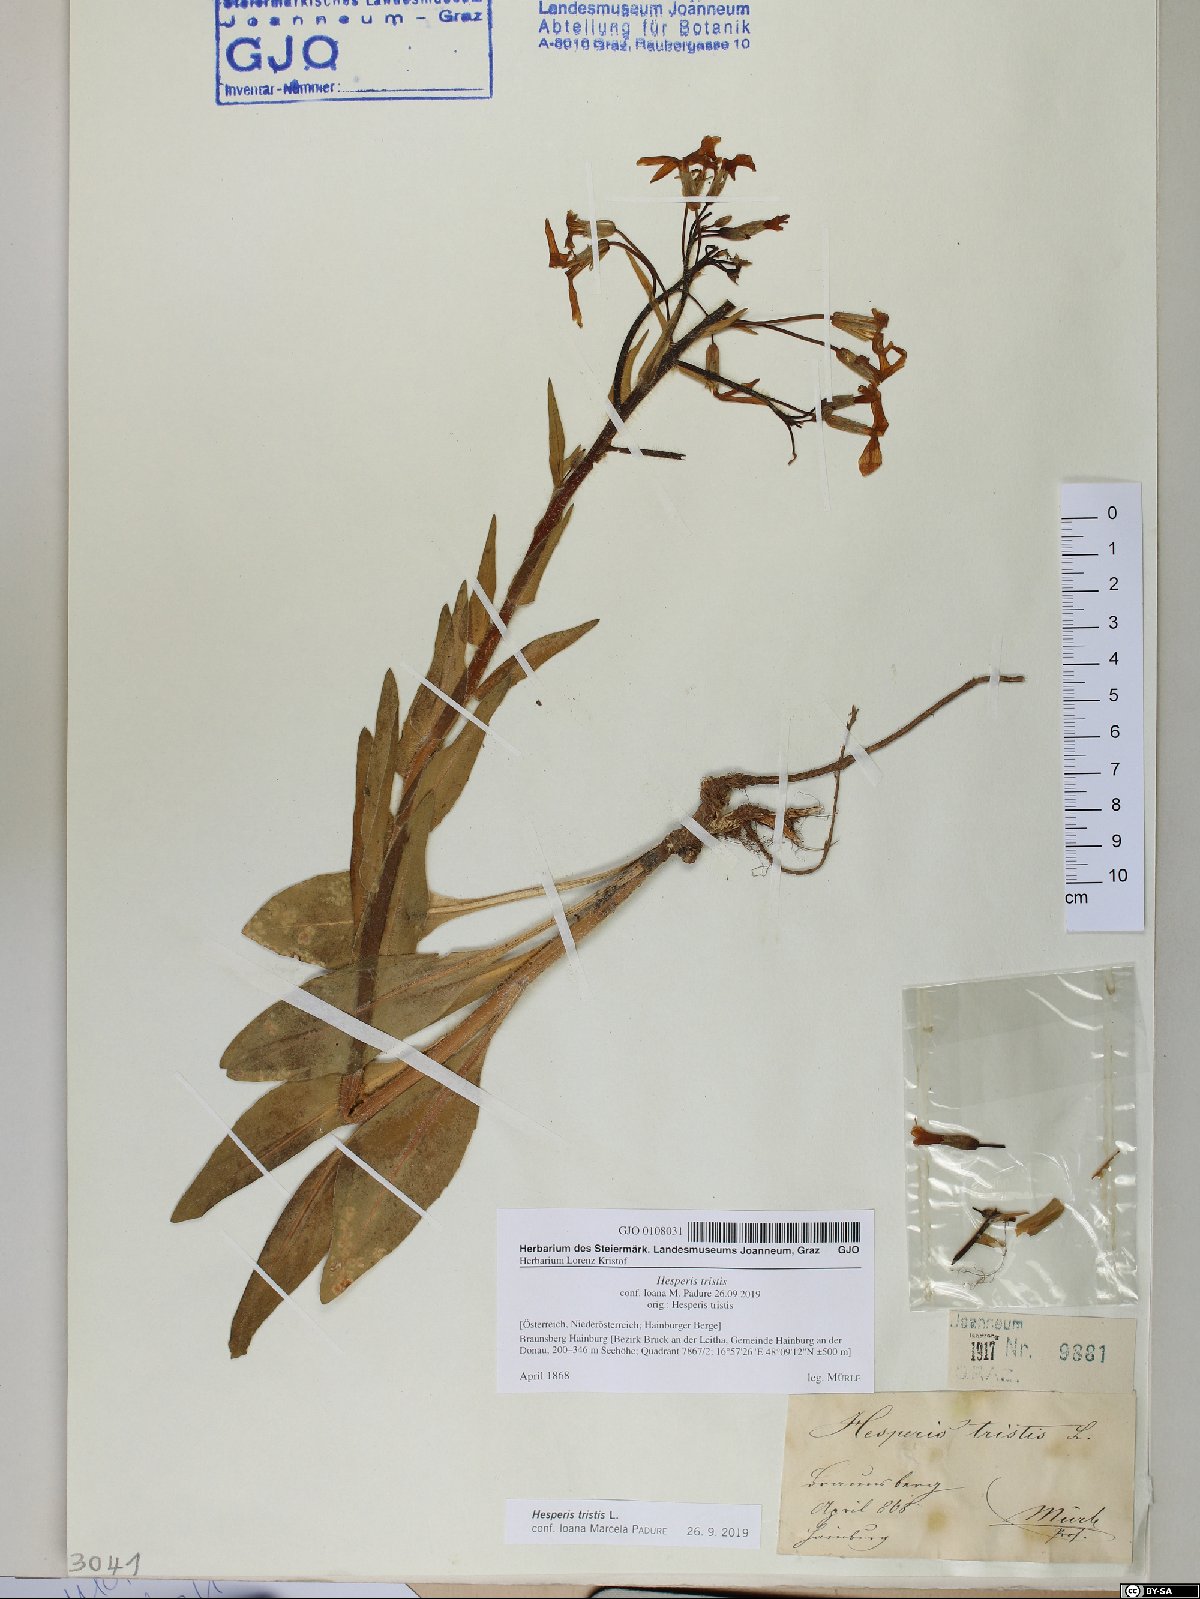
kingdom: Plantae
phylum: Tracheophyta
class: Magnoliopsida
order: Brassicales
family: Brassicaceae
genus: Hesperis
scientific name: Hesperis tristis
